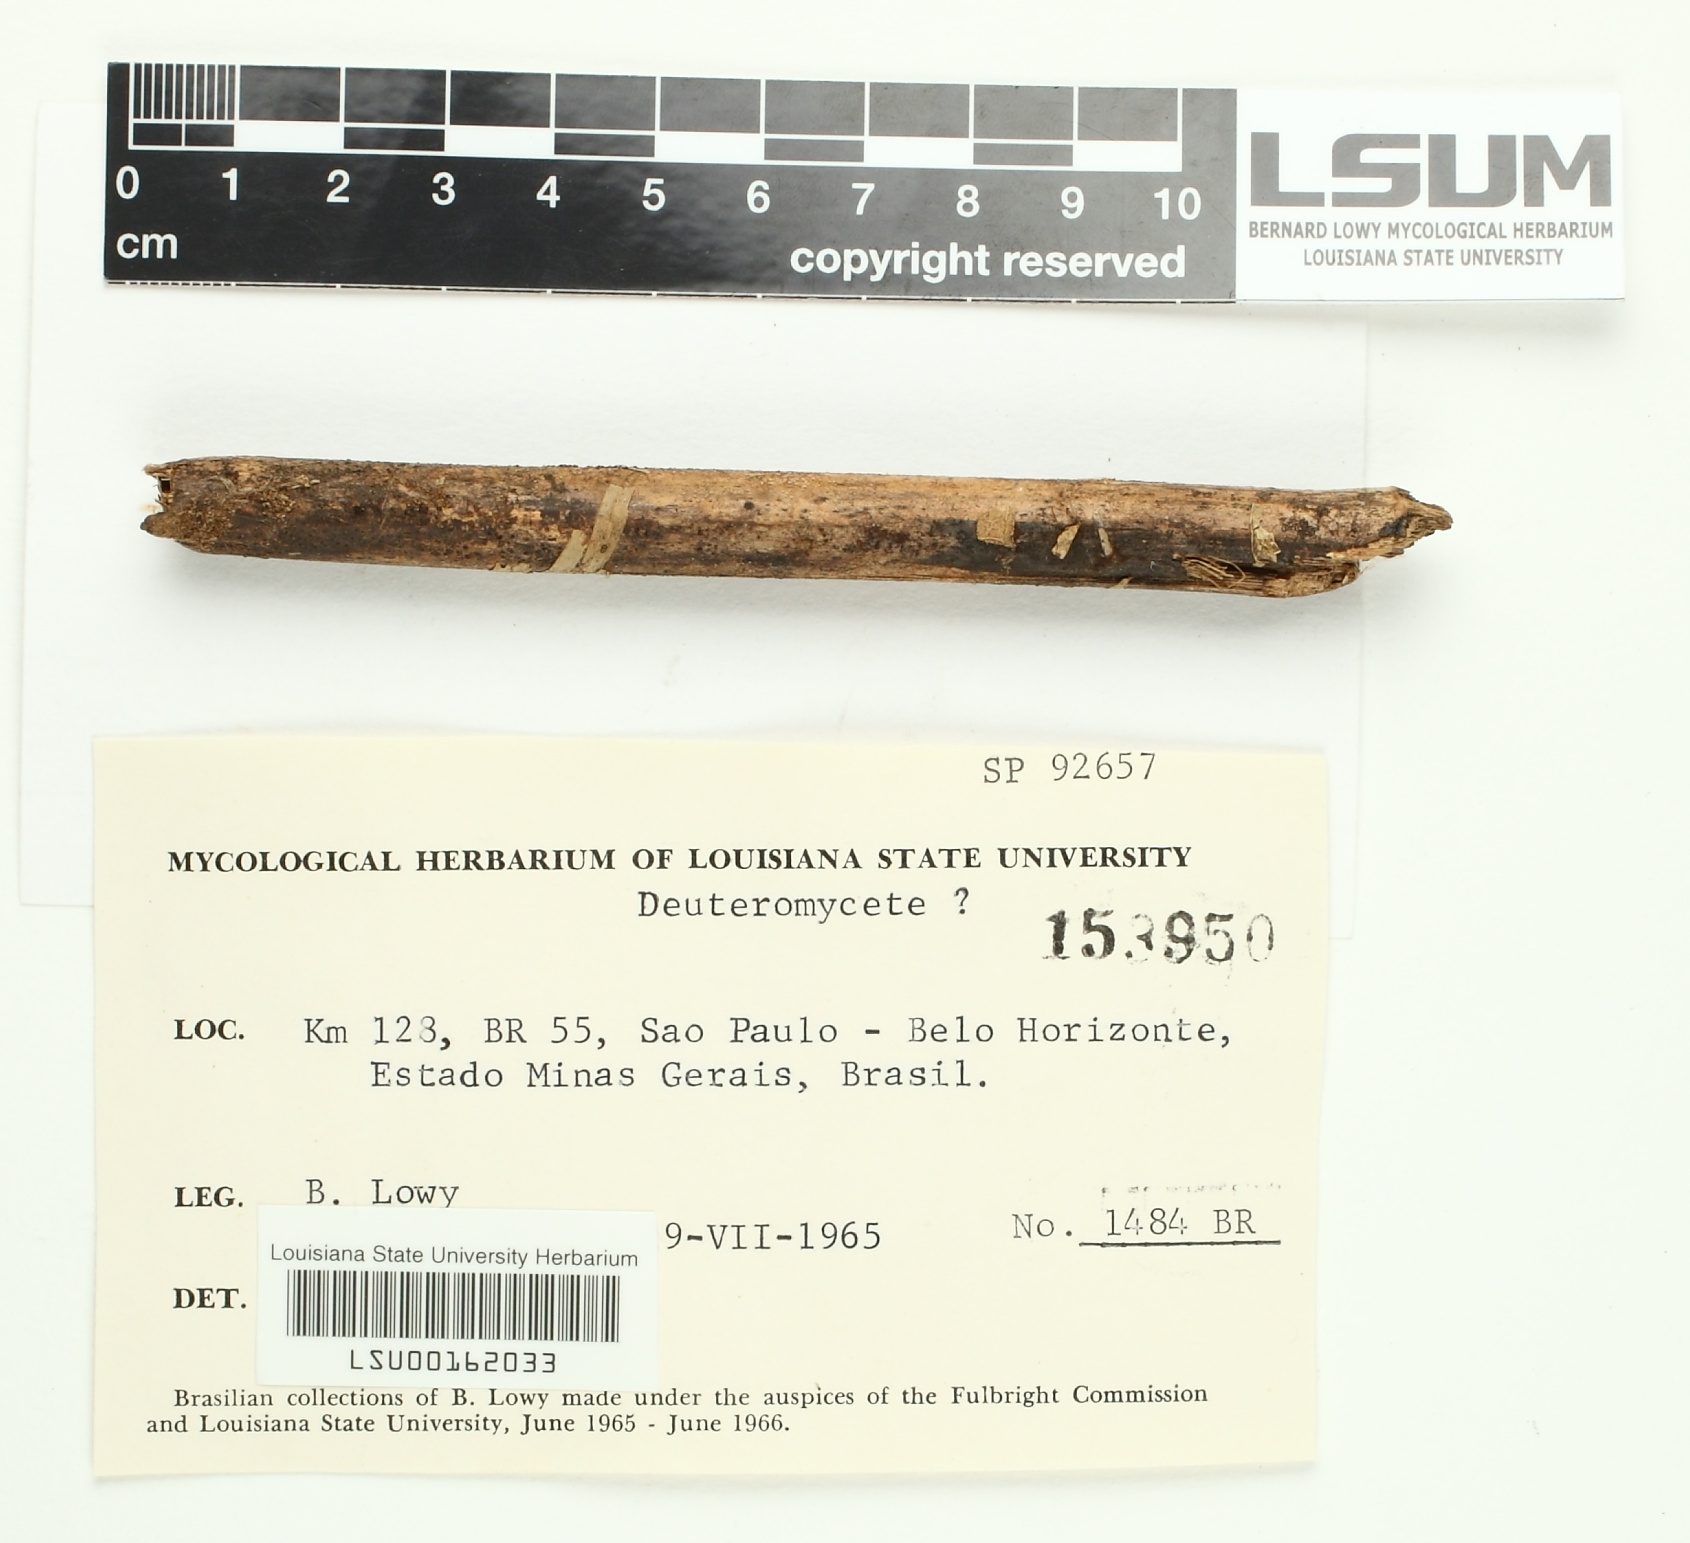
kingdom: Fungi
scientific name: Fungi
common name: Fungi
